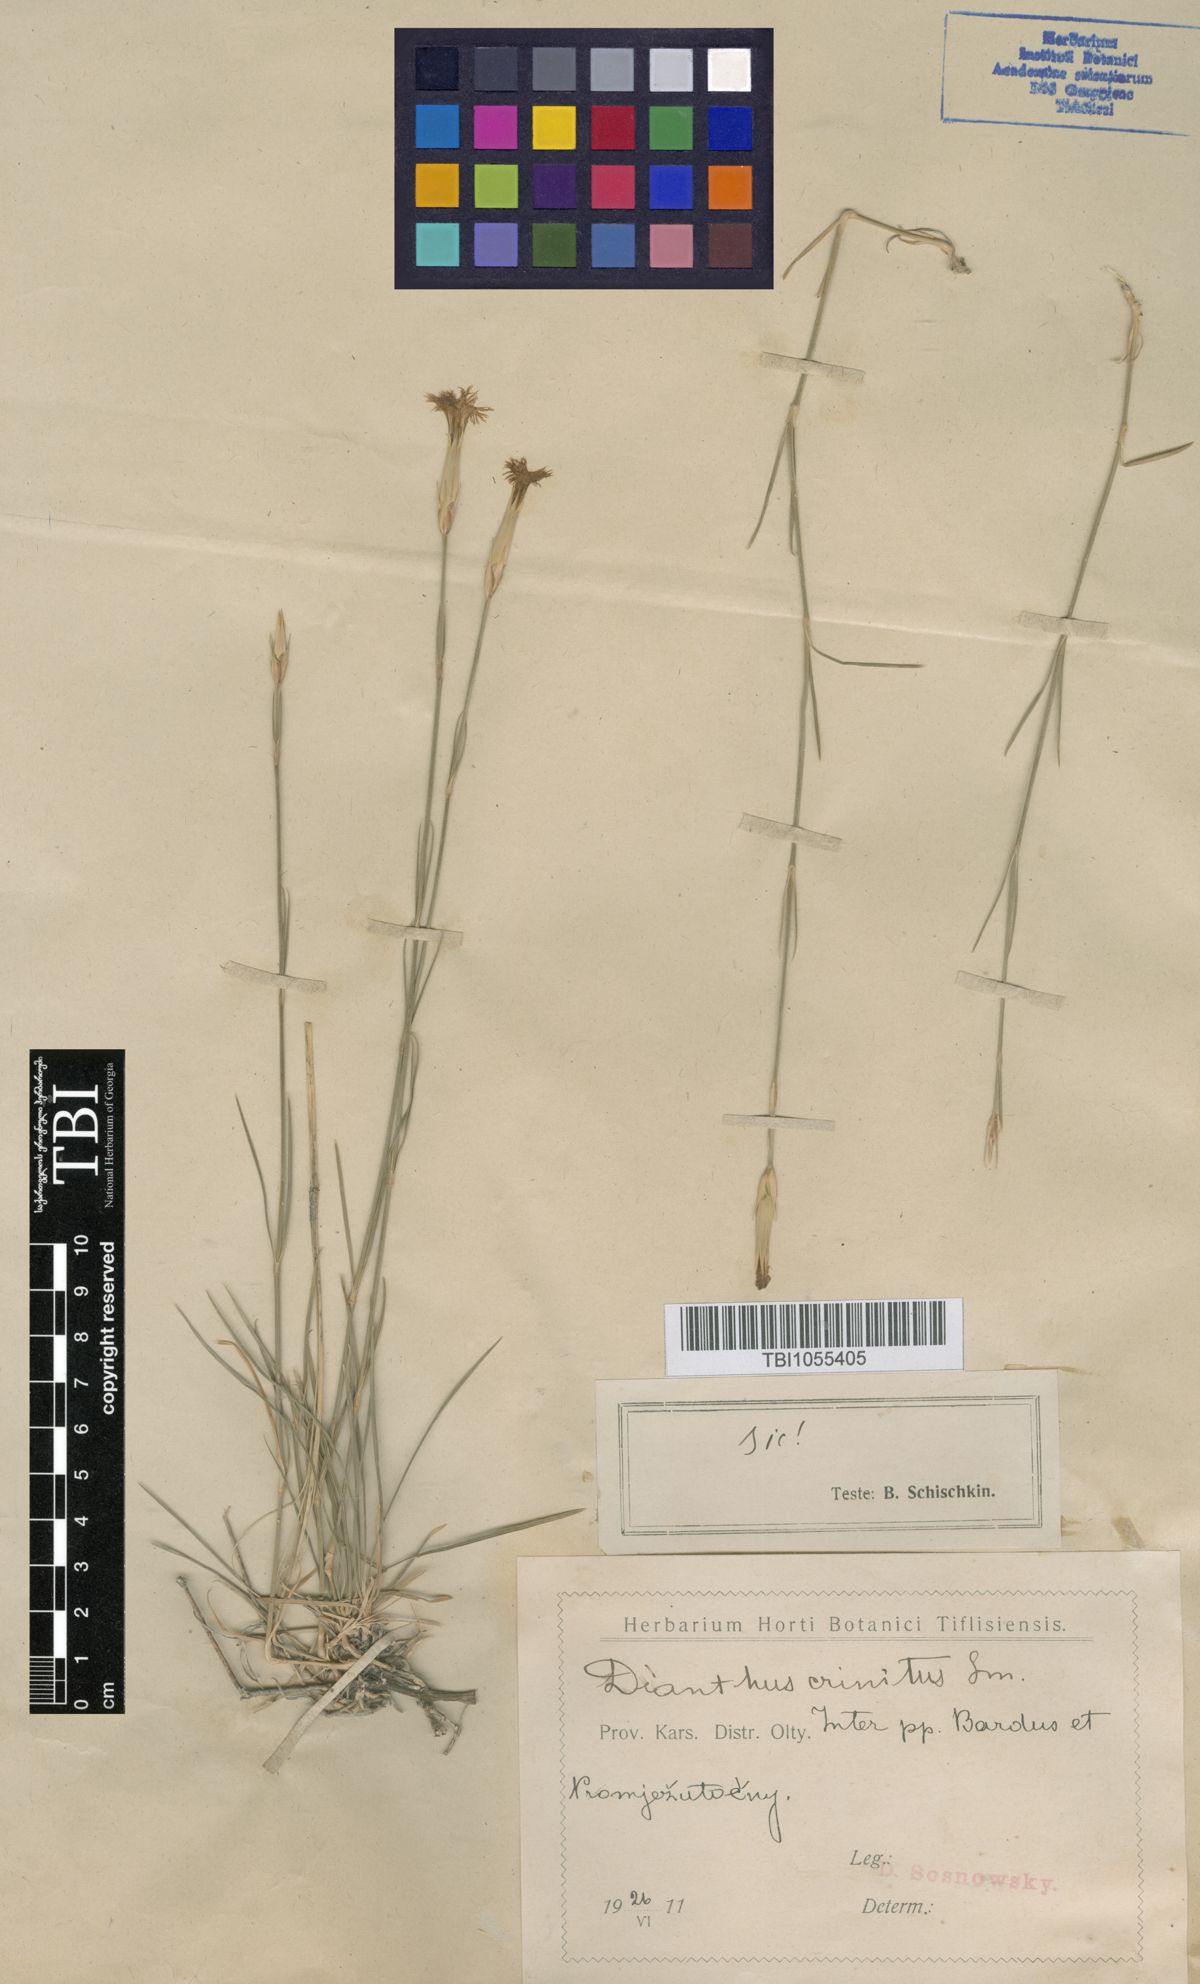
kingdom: Plantae
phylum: Tracheophyta
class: Magnoliopsida
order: Caryophyllales
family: Caryophyllaceae
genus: Dianthus
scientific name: Dianthus crinitus
